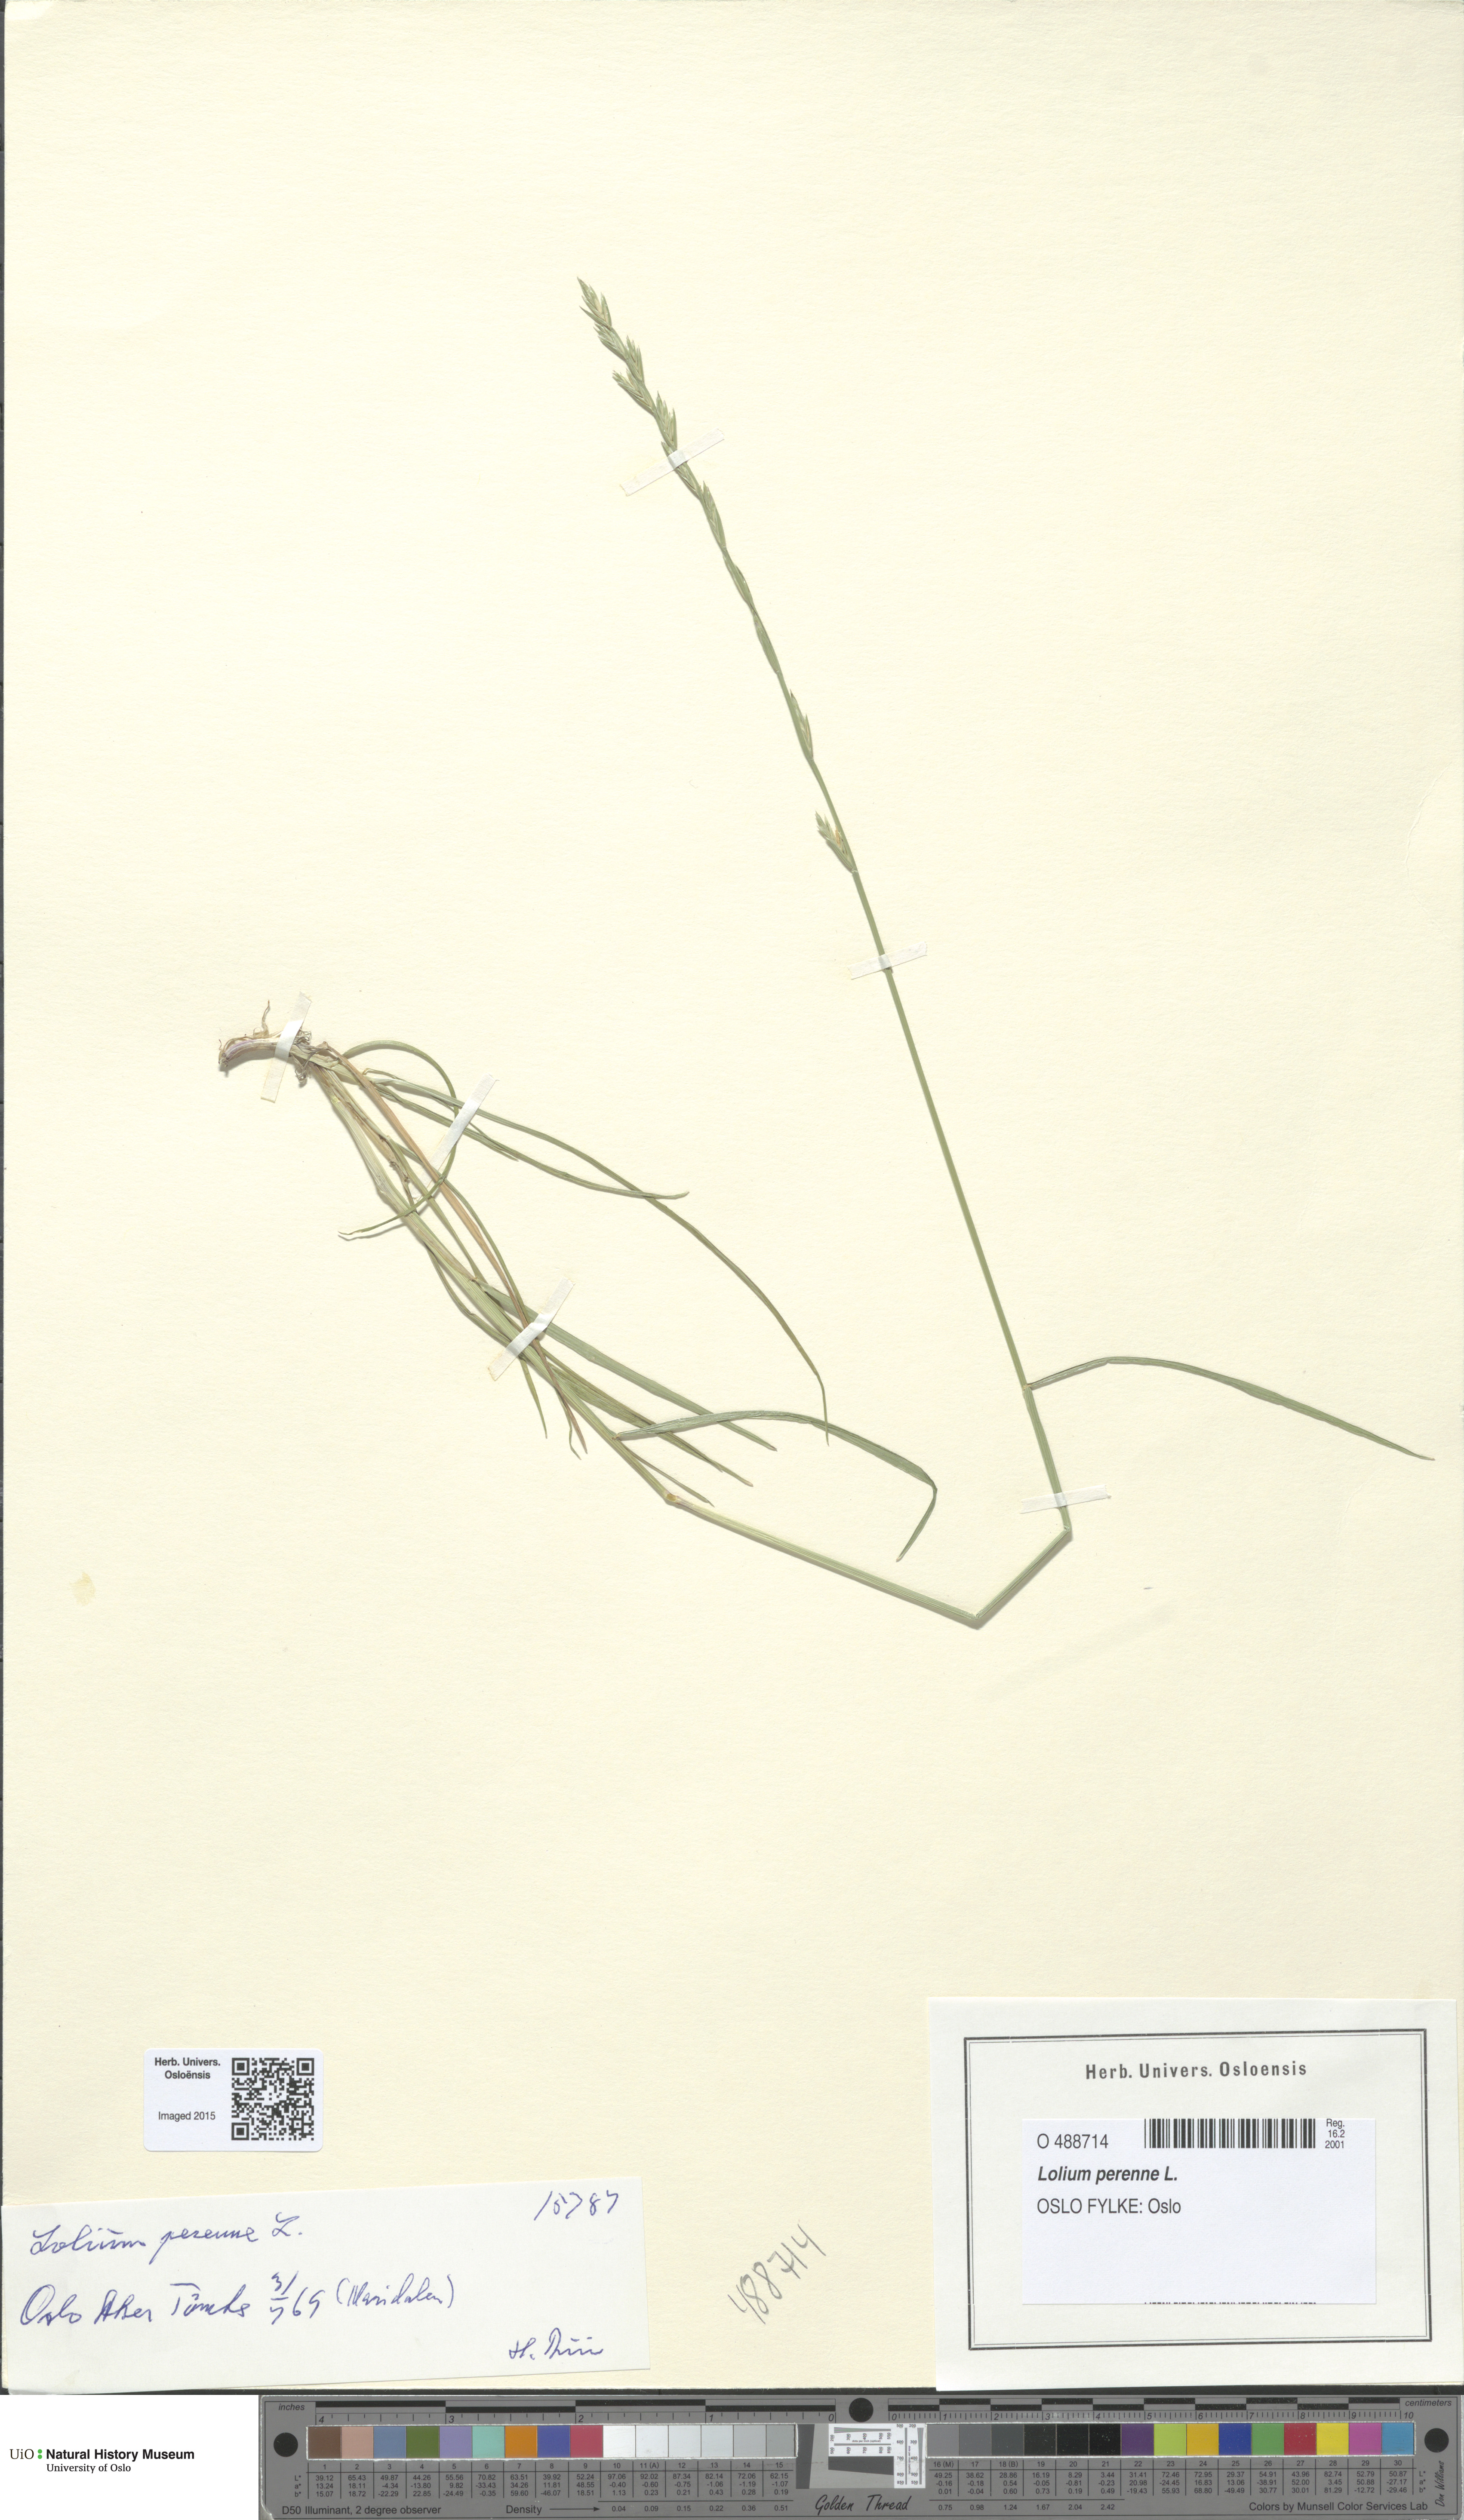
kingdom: Plantae
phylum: Tracheophyta
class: Liliopsida
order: Poales
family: Poaceae
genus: Lolium
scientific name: Lolium perenne
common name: Perennial ryegrass
